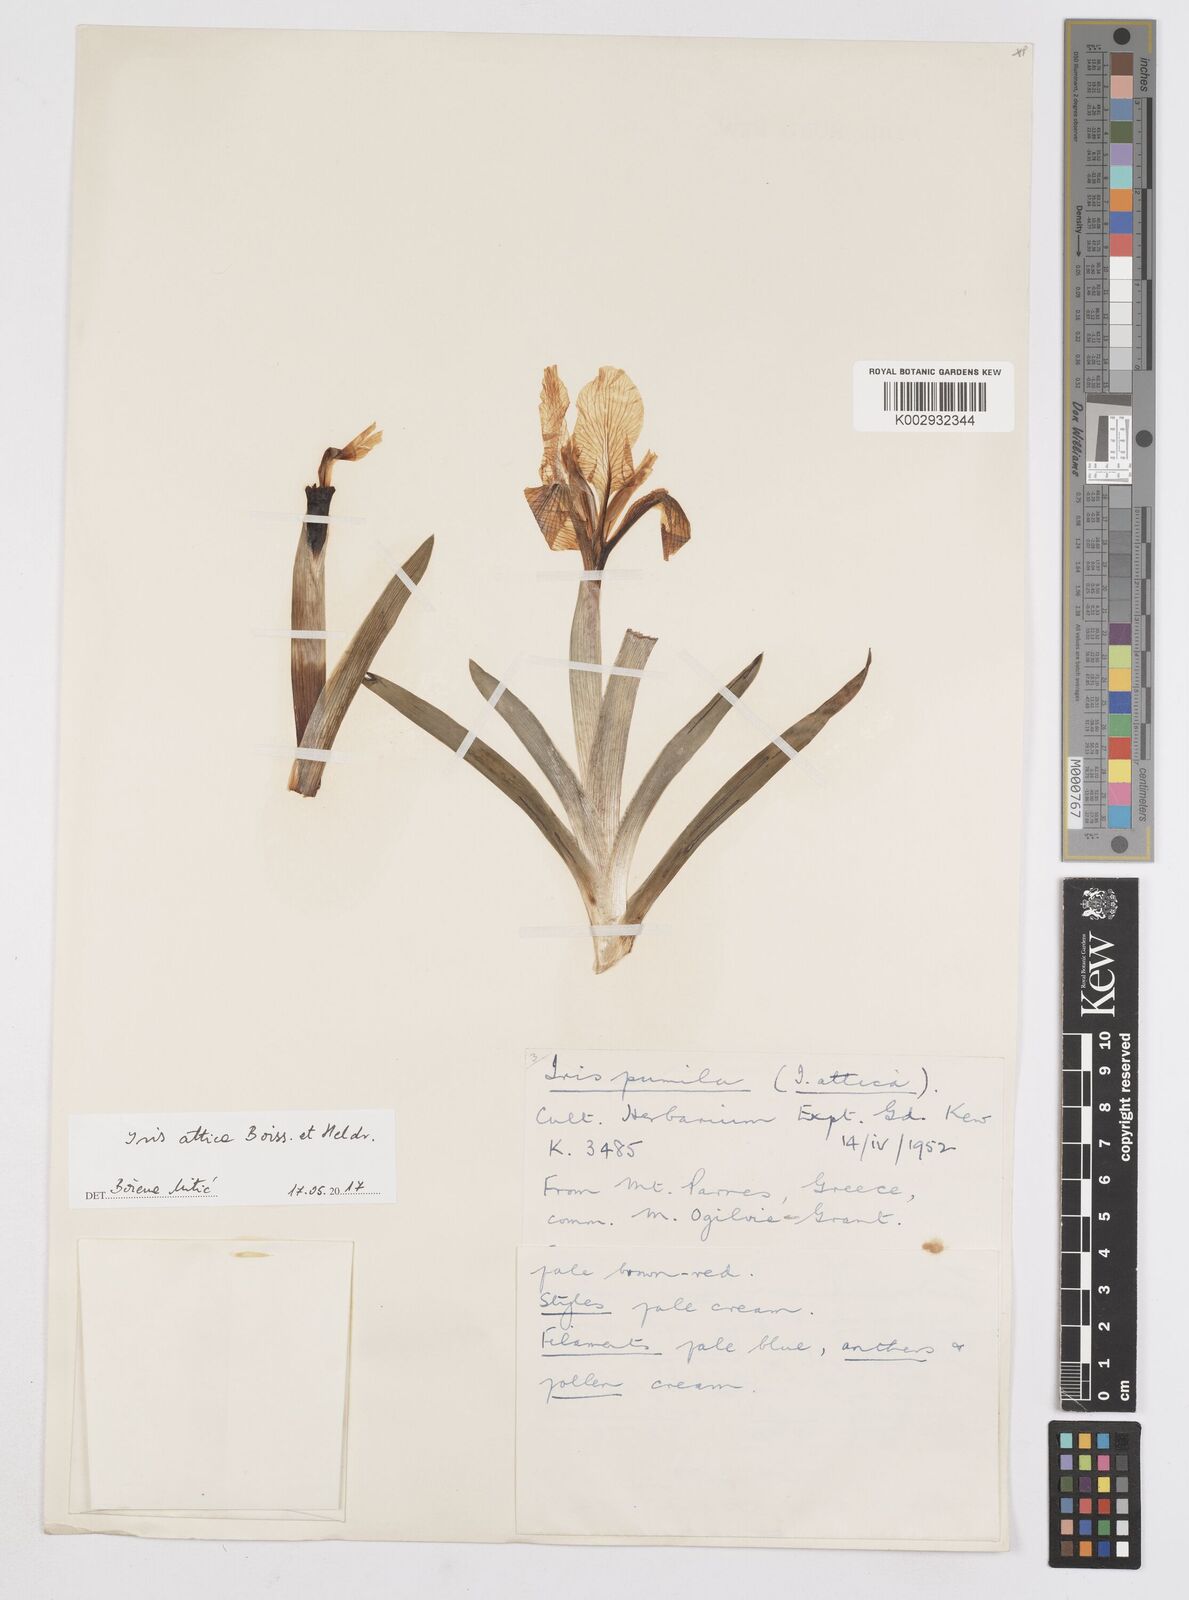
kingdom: Plantae
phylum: Tracheophyta
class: Liliopsida
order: Asparagales
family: Iridaceae
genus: Iris
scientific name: Iris pumila
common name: Dwarf iris
